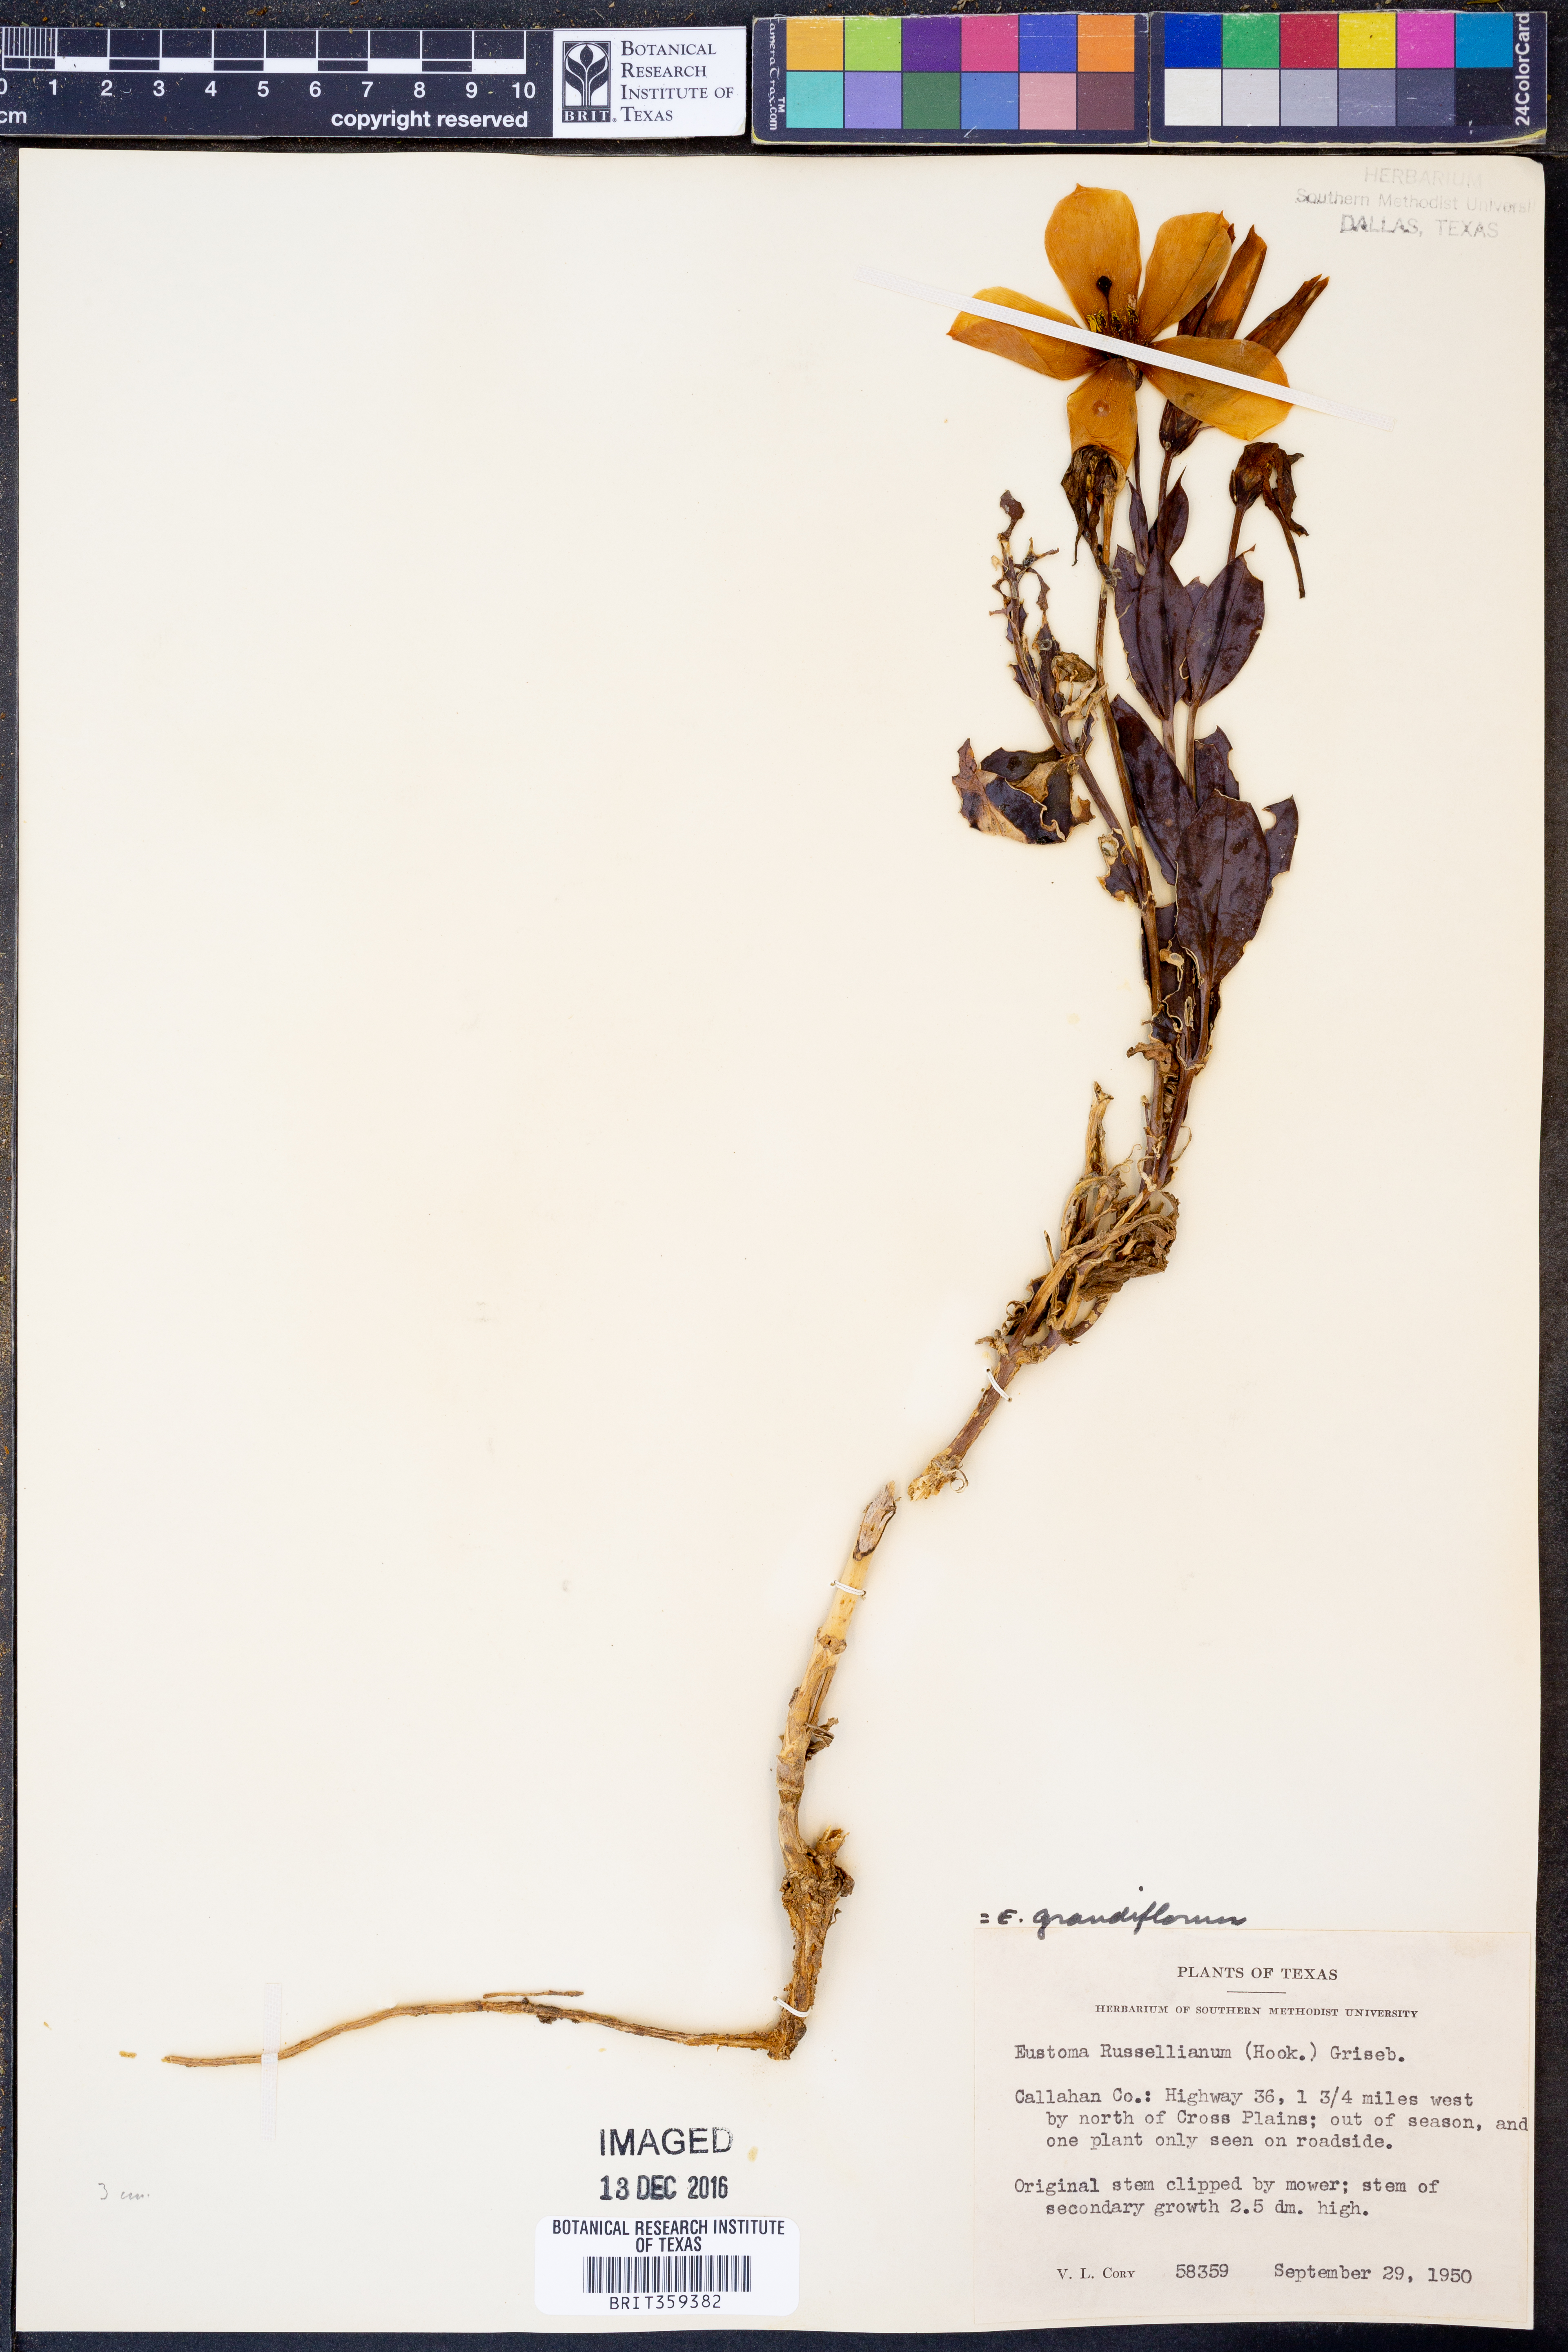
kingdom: Plantae
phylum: Tracheophyta
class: Magnoliopsida
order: Gentianales
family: Gentianaceae
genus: Eustoma
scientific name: Eustoma russellianum
